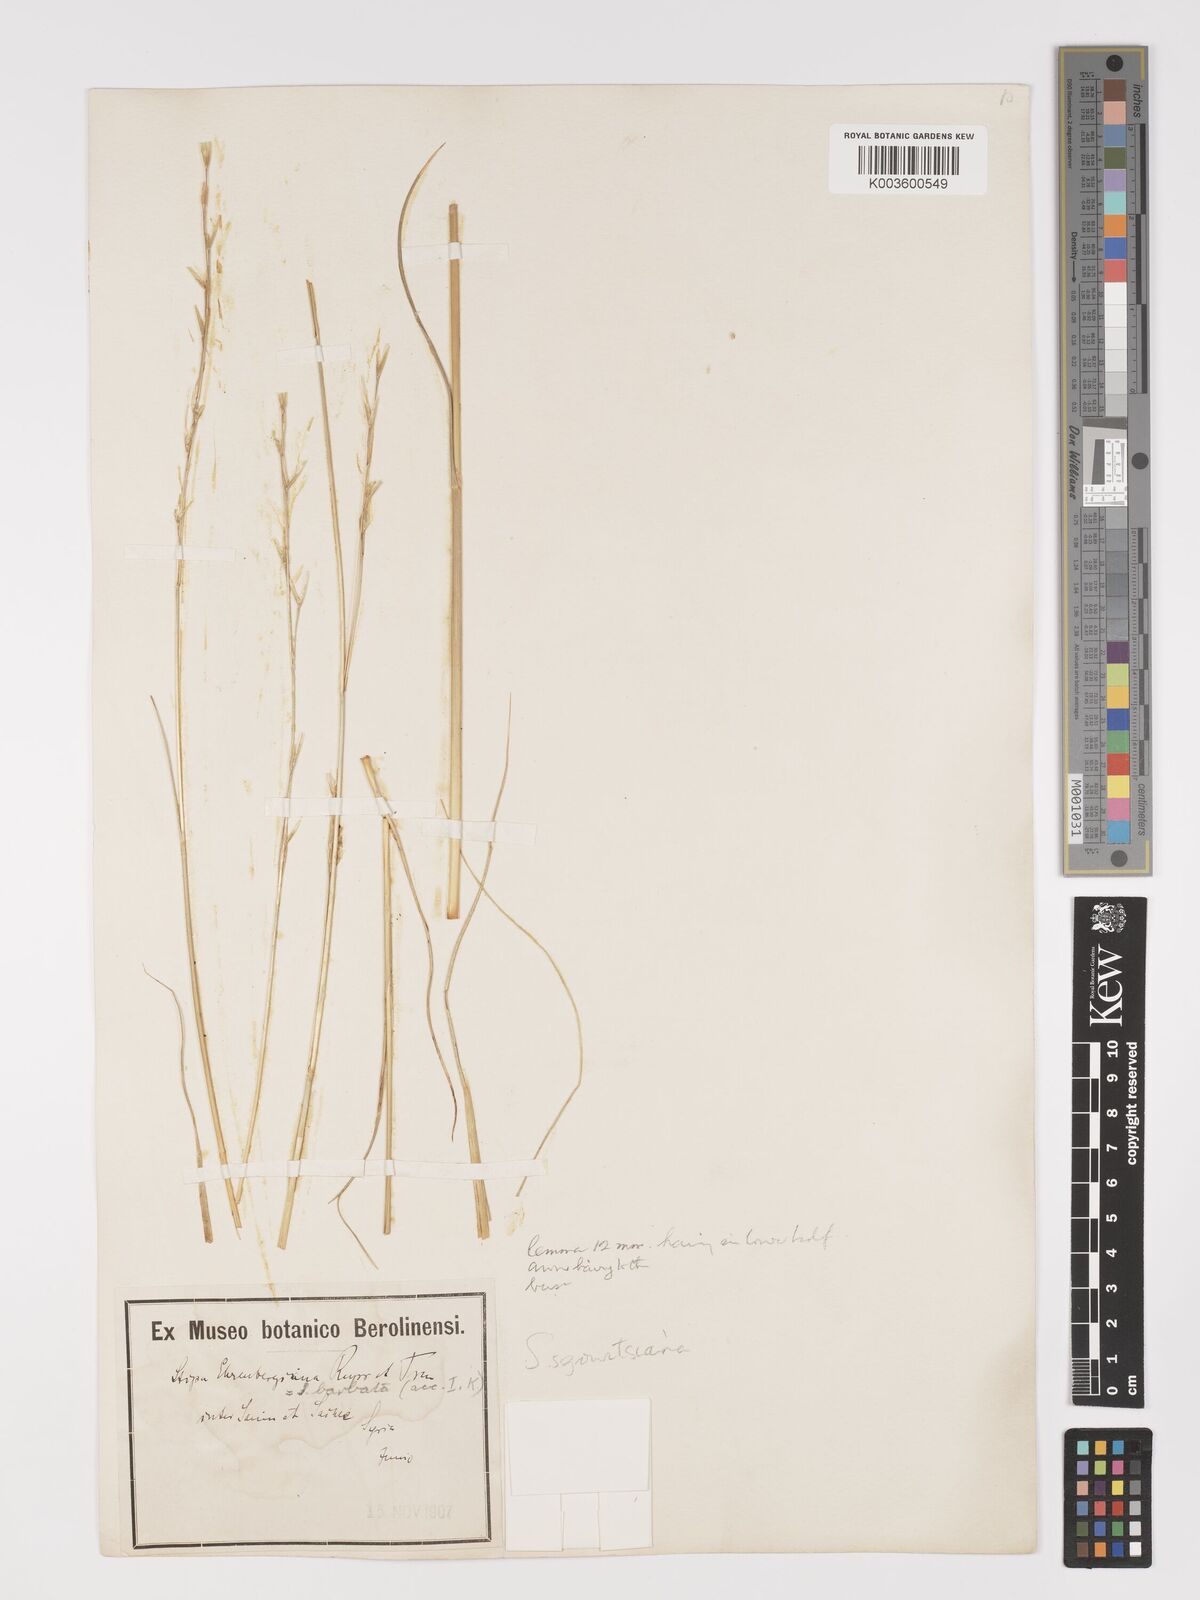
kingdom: Plantae
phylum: Tracheophyta
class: Liliopsida
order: Poales
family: Poaceae
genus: Stipa
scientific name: Stipa barbata
